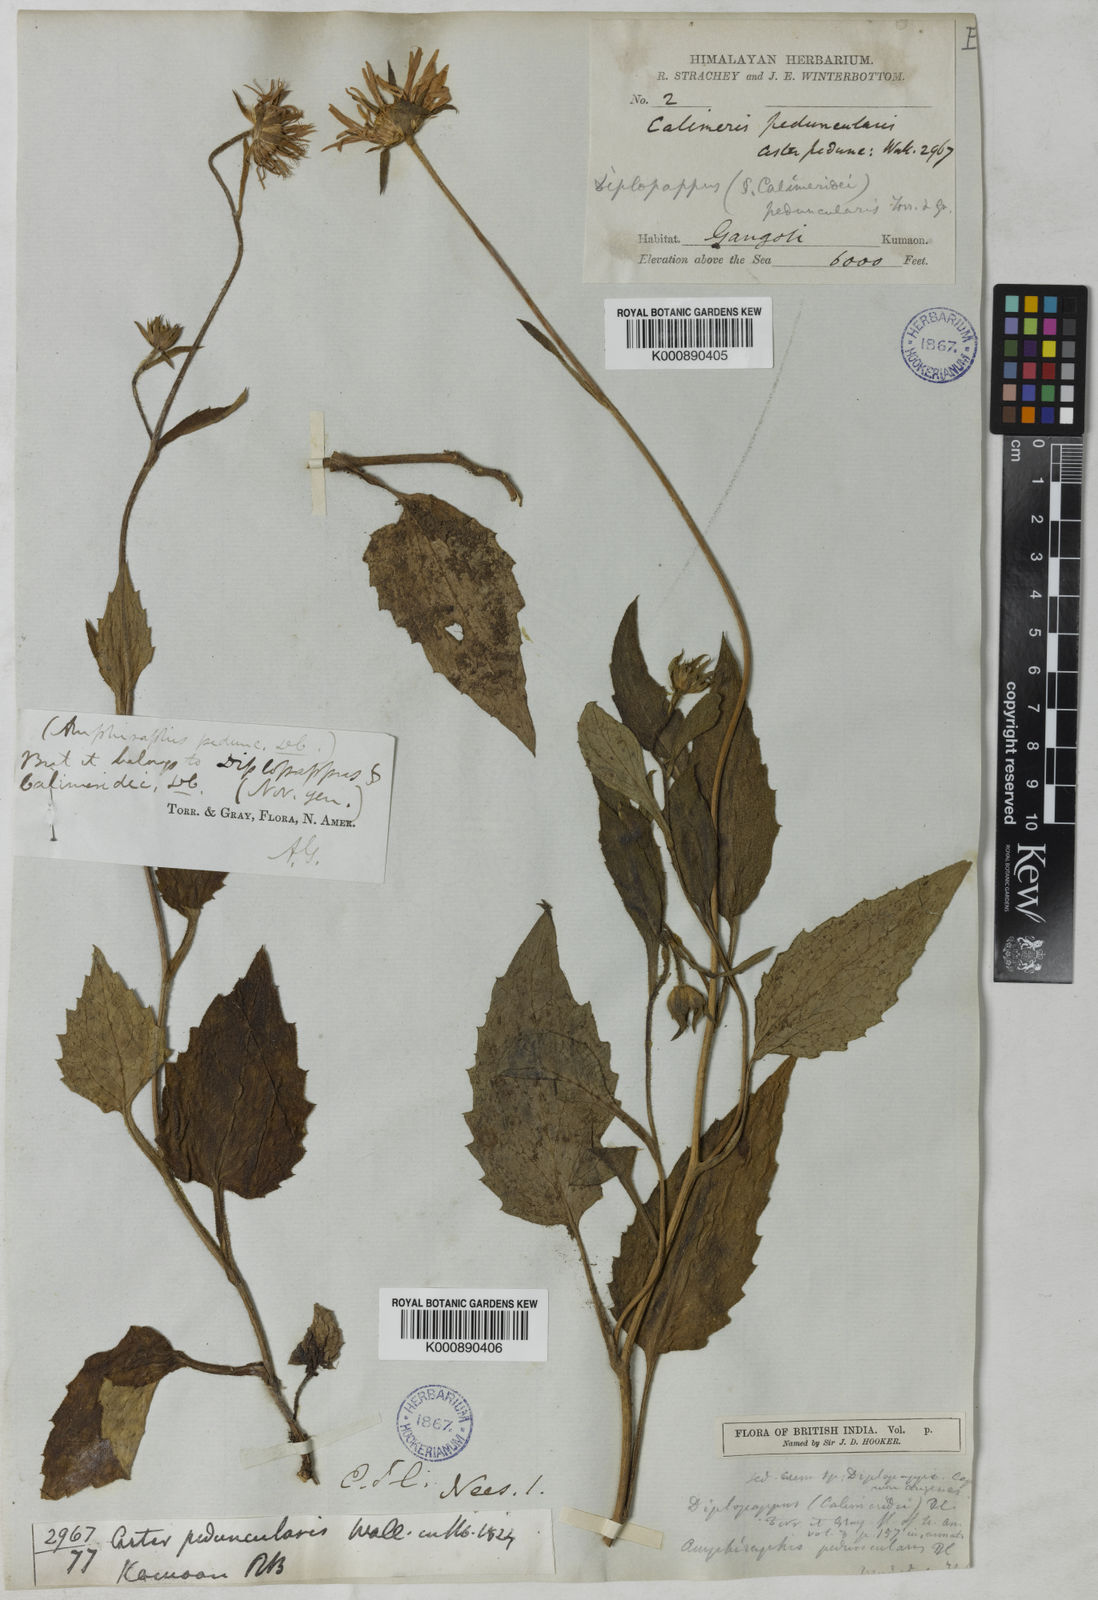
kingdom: Plantae
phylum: Tracheophyta
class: Magnoliopsida
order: Asterales
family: Asteraceae
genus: Aster
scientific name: Aster
